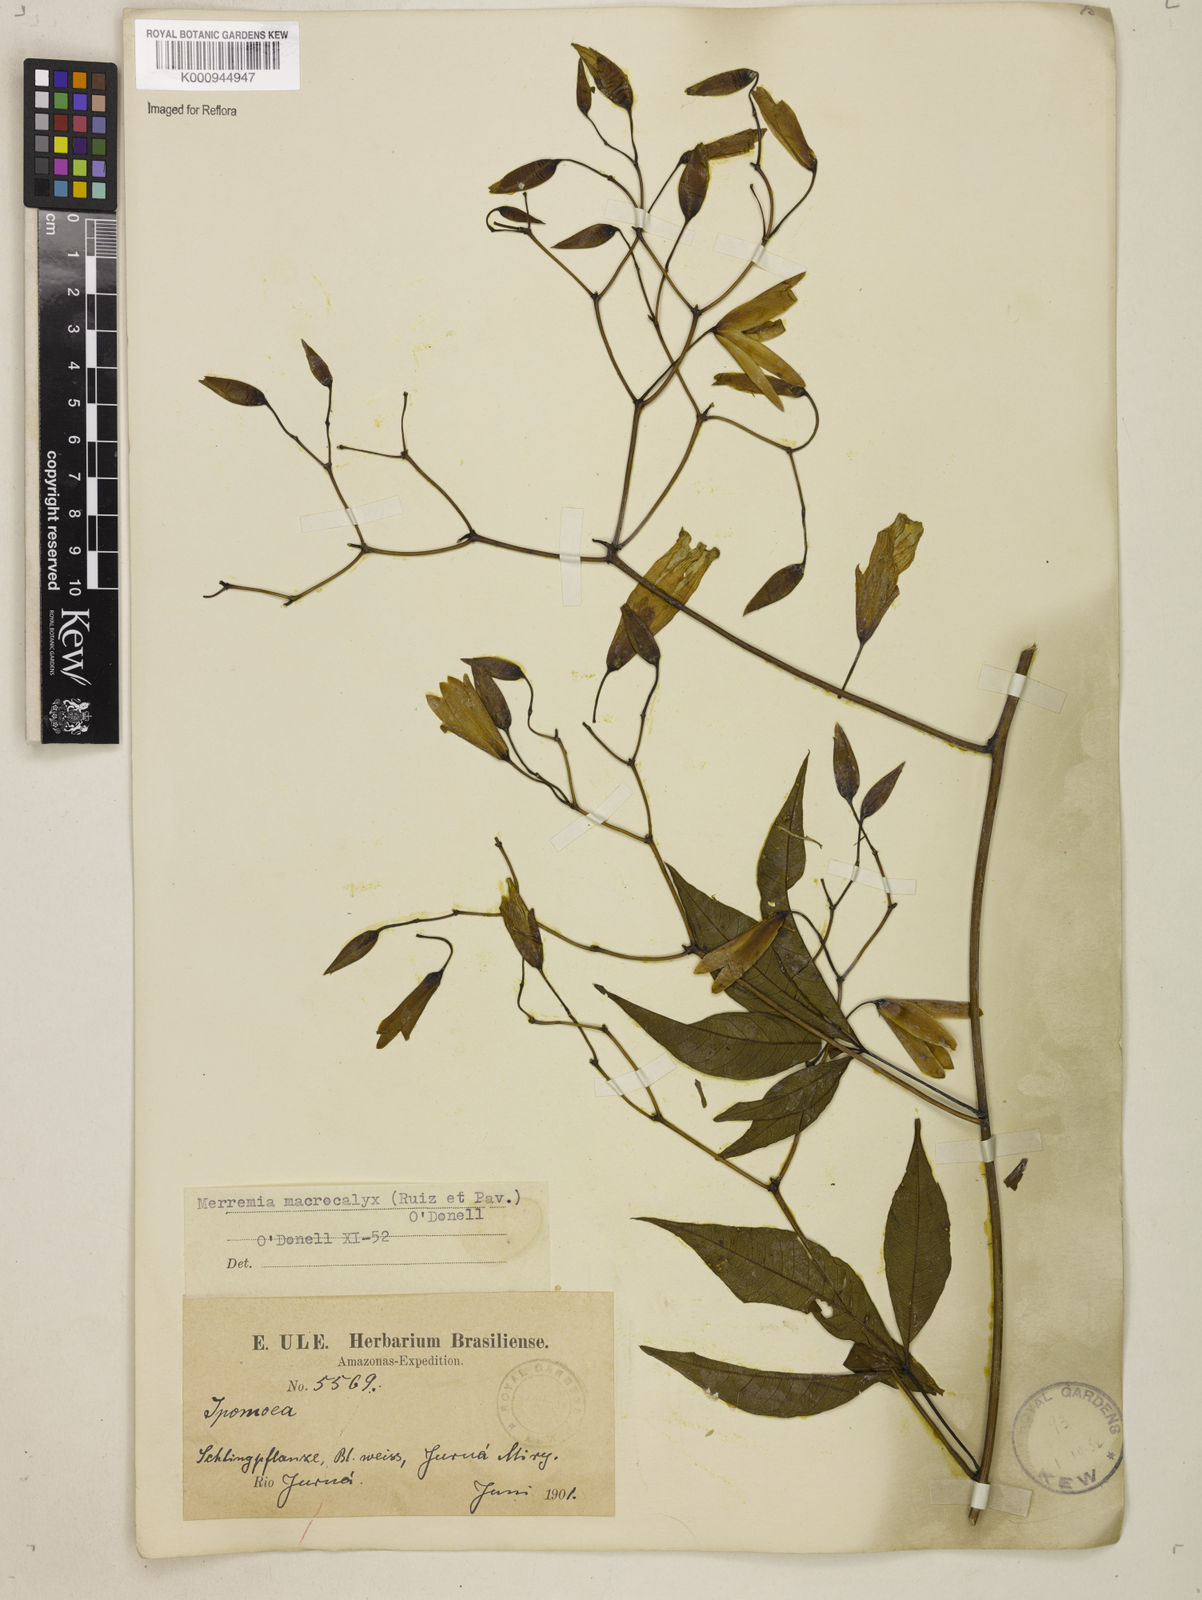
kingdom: Plantae
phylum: Tracheophyta
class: Magnoliopsida
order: Solanales
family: Convolvulaceae
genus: Distimake
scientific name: Distimake macrocalyx
